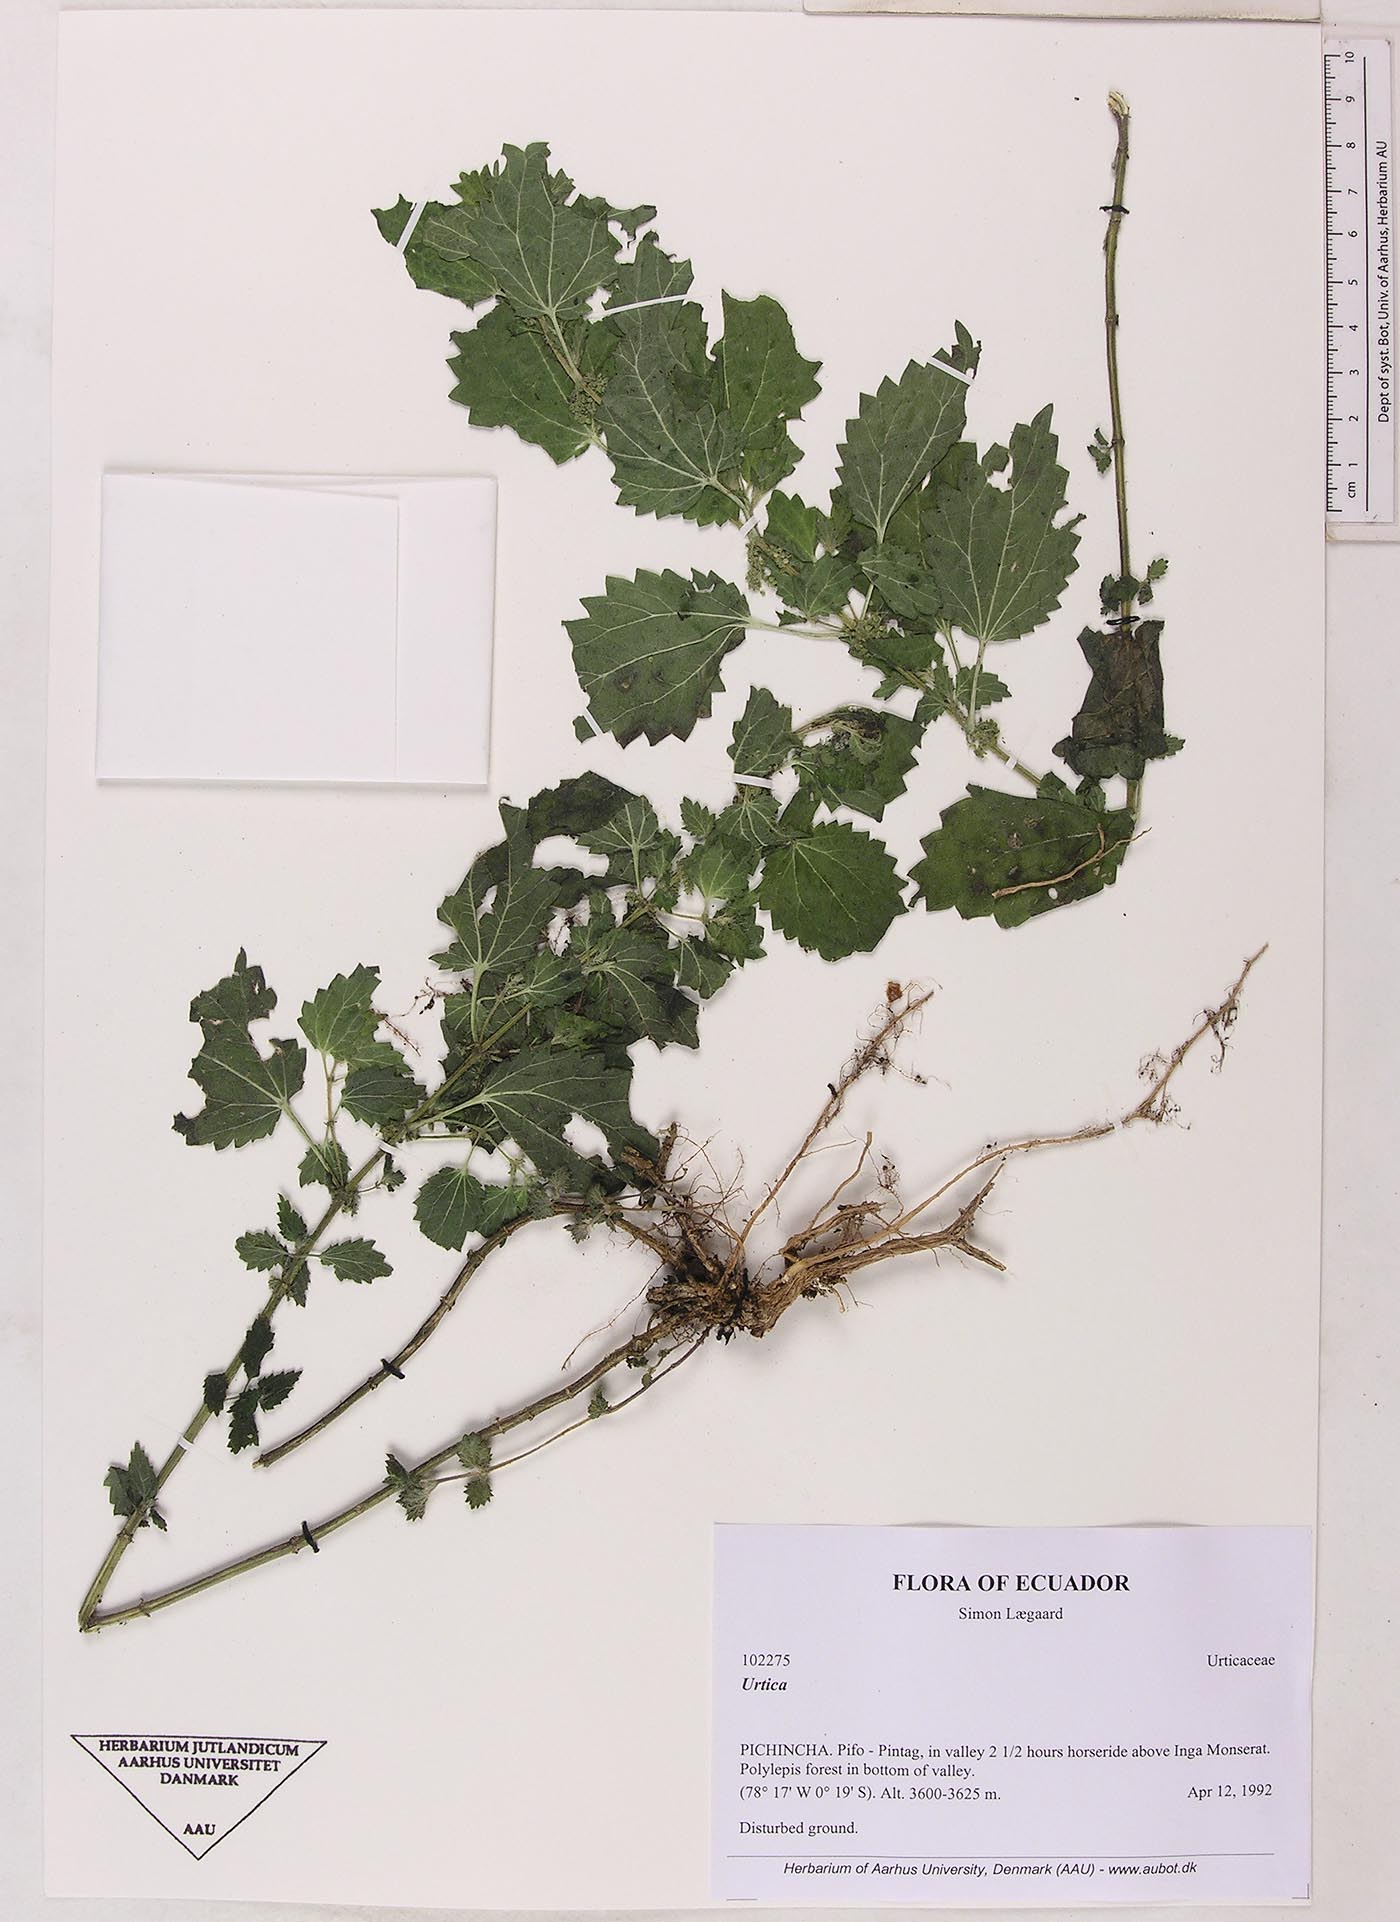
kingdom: Plantae
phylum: Tracheophyta
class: Magnoliopsida
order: Rosales
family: Urticaceae
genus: Urtica
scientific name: Urtica leptophylla
